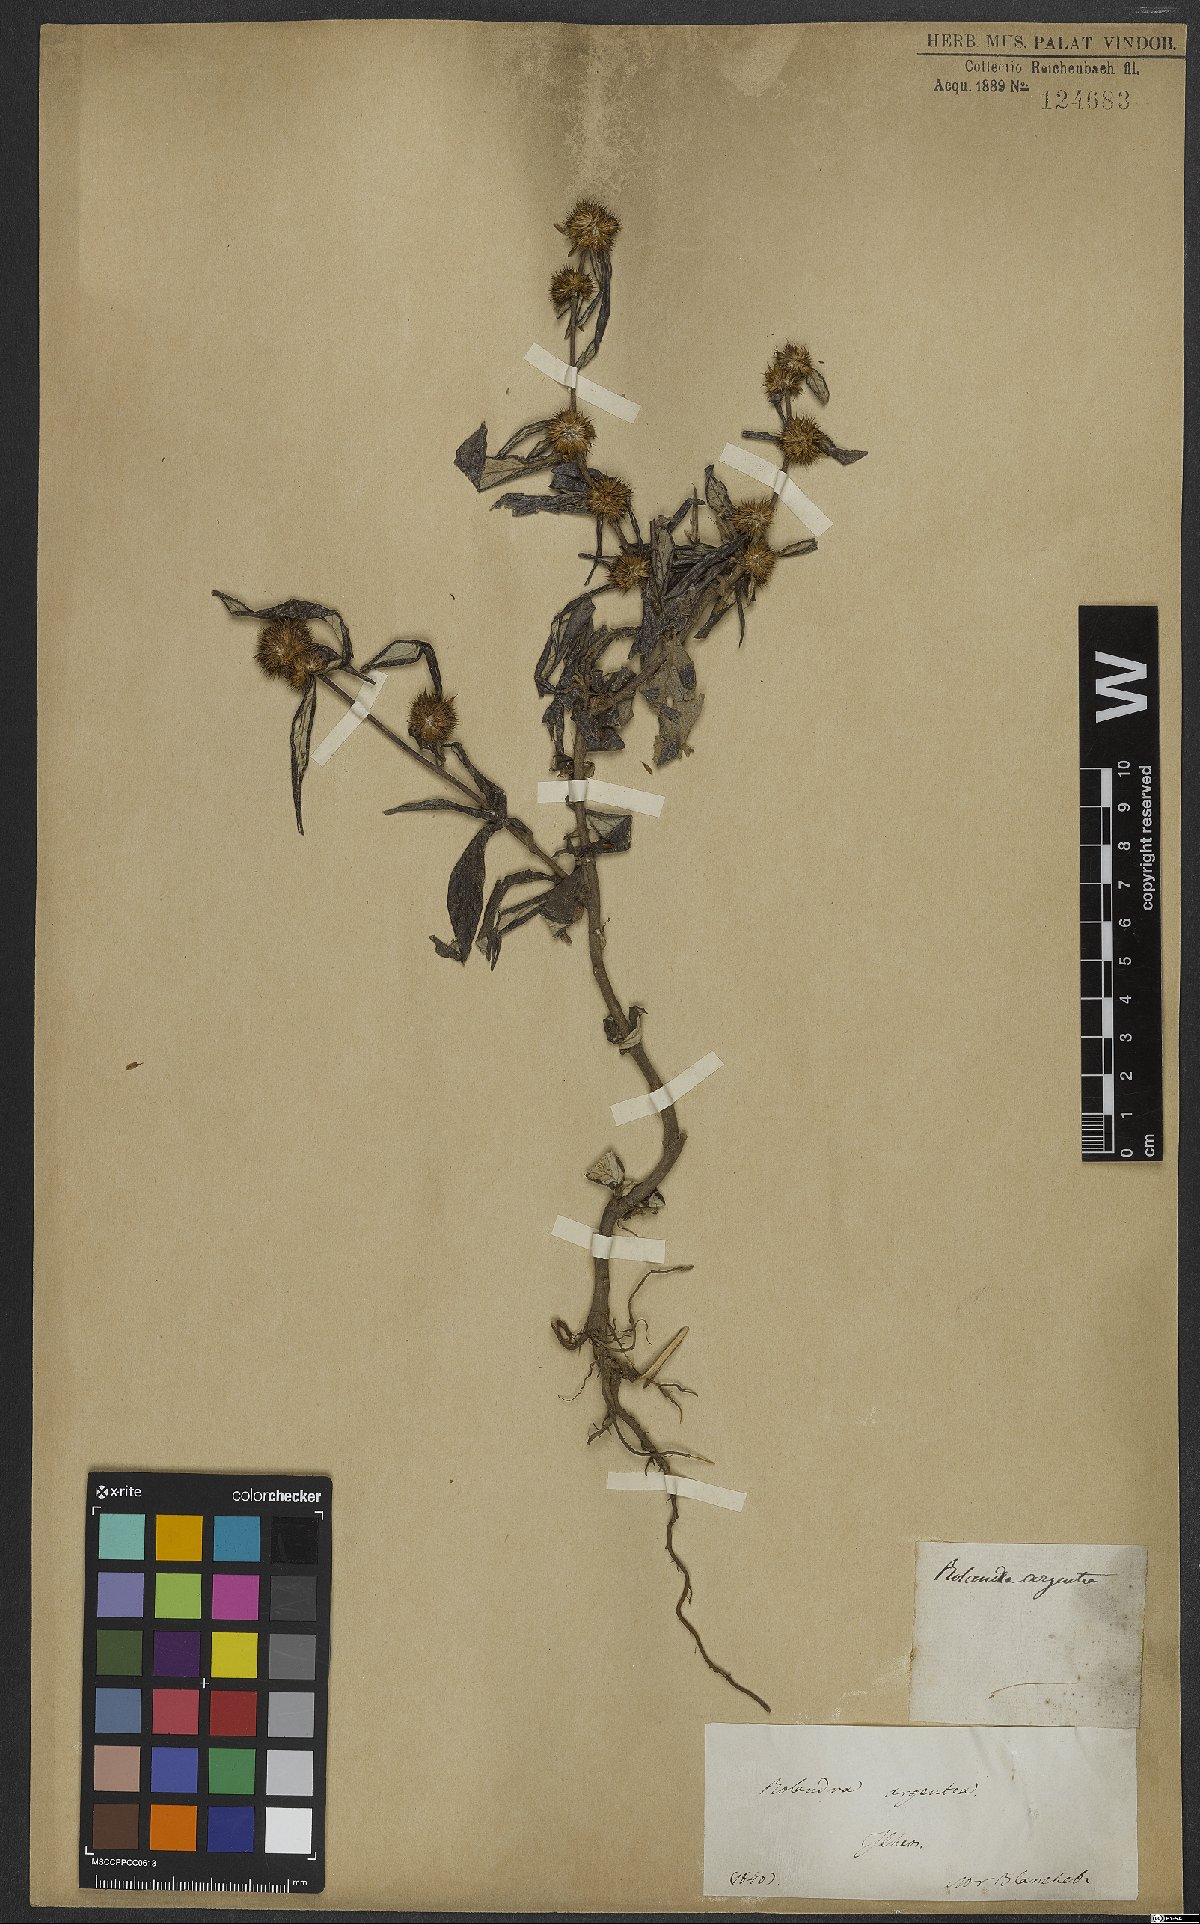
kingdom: Plantae
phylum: Tracheophyta
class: Magnoliopsida
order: Asterales
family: Asteraceae
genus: Rolandra
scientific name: Rolandra fruticosa
